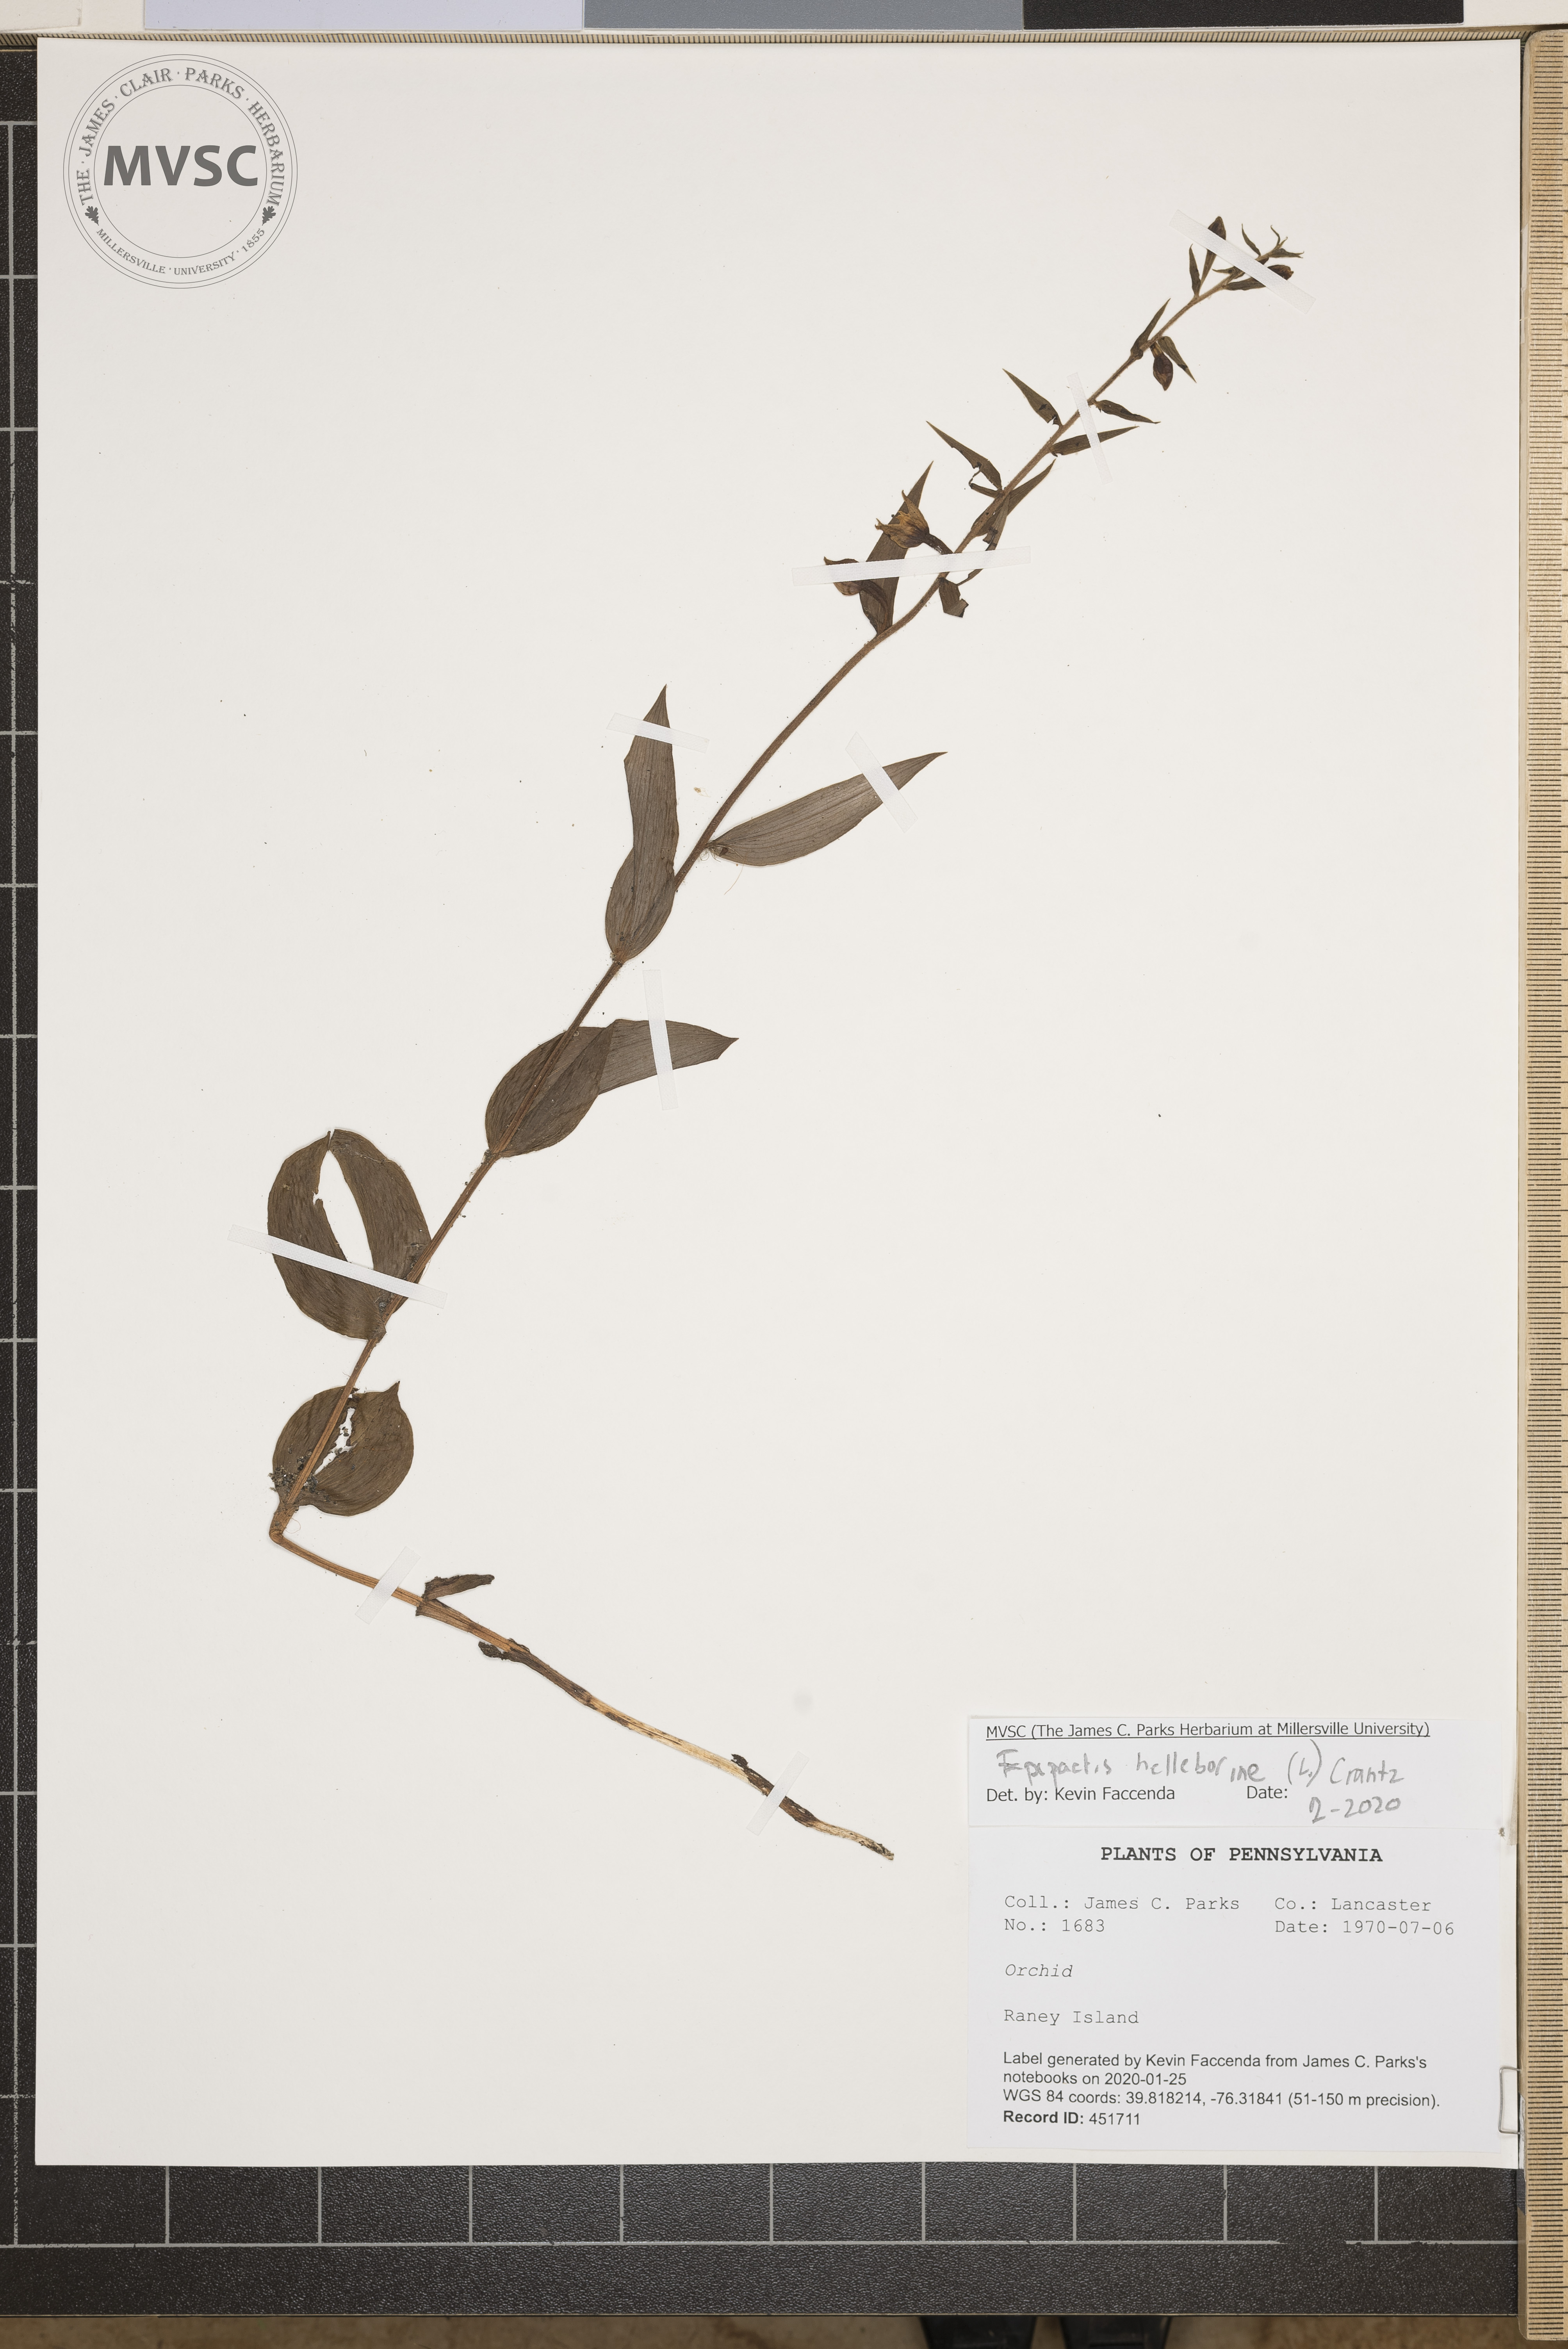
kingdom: Plantae
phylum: Tracheophyta
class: Liliopsida
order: Asparagales
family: Orchidaceae
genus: Epipactis
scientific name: Epipactis helleborine
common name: Broad-leaved helleborine
